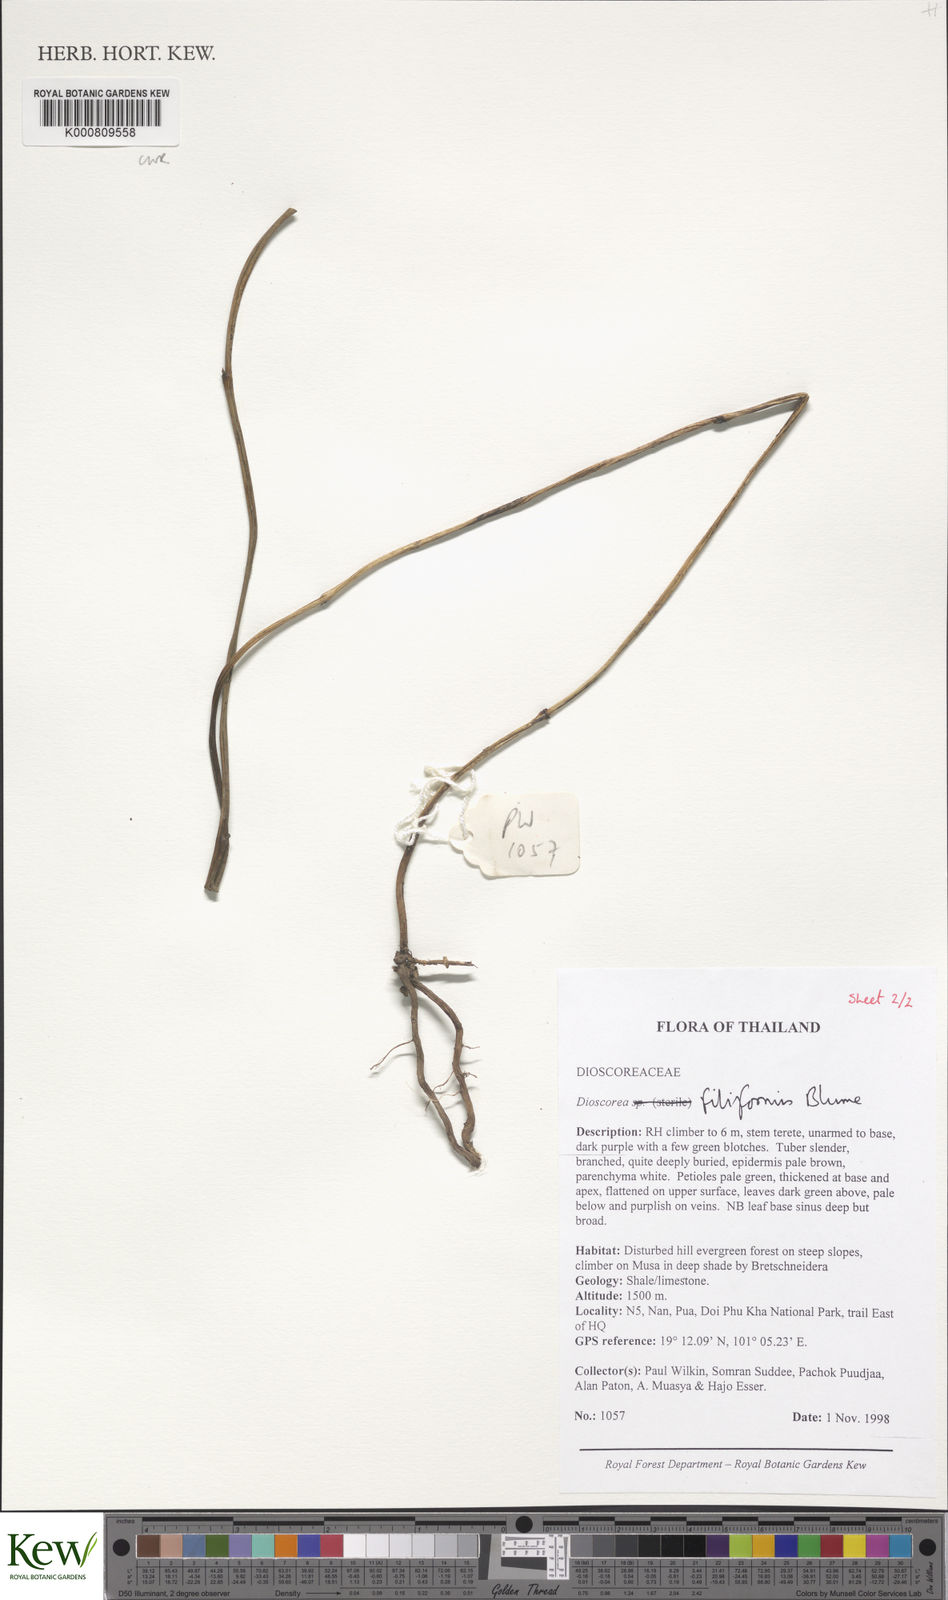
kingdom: Plantae
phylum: Tracheophyta
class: Liliopsida
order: Dioscoreales
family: Dioscoreaceae
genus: Dioscorea
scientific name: Dioscorea filiformis
